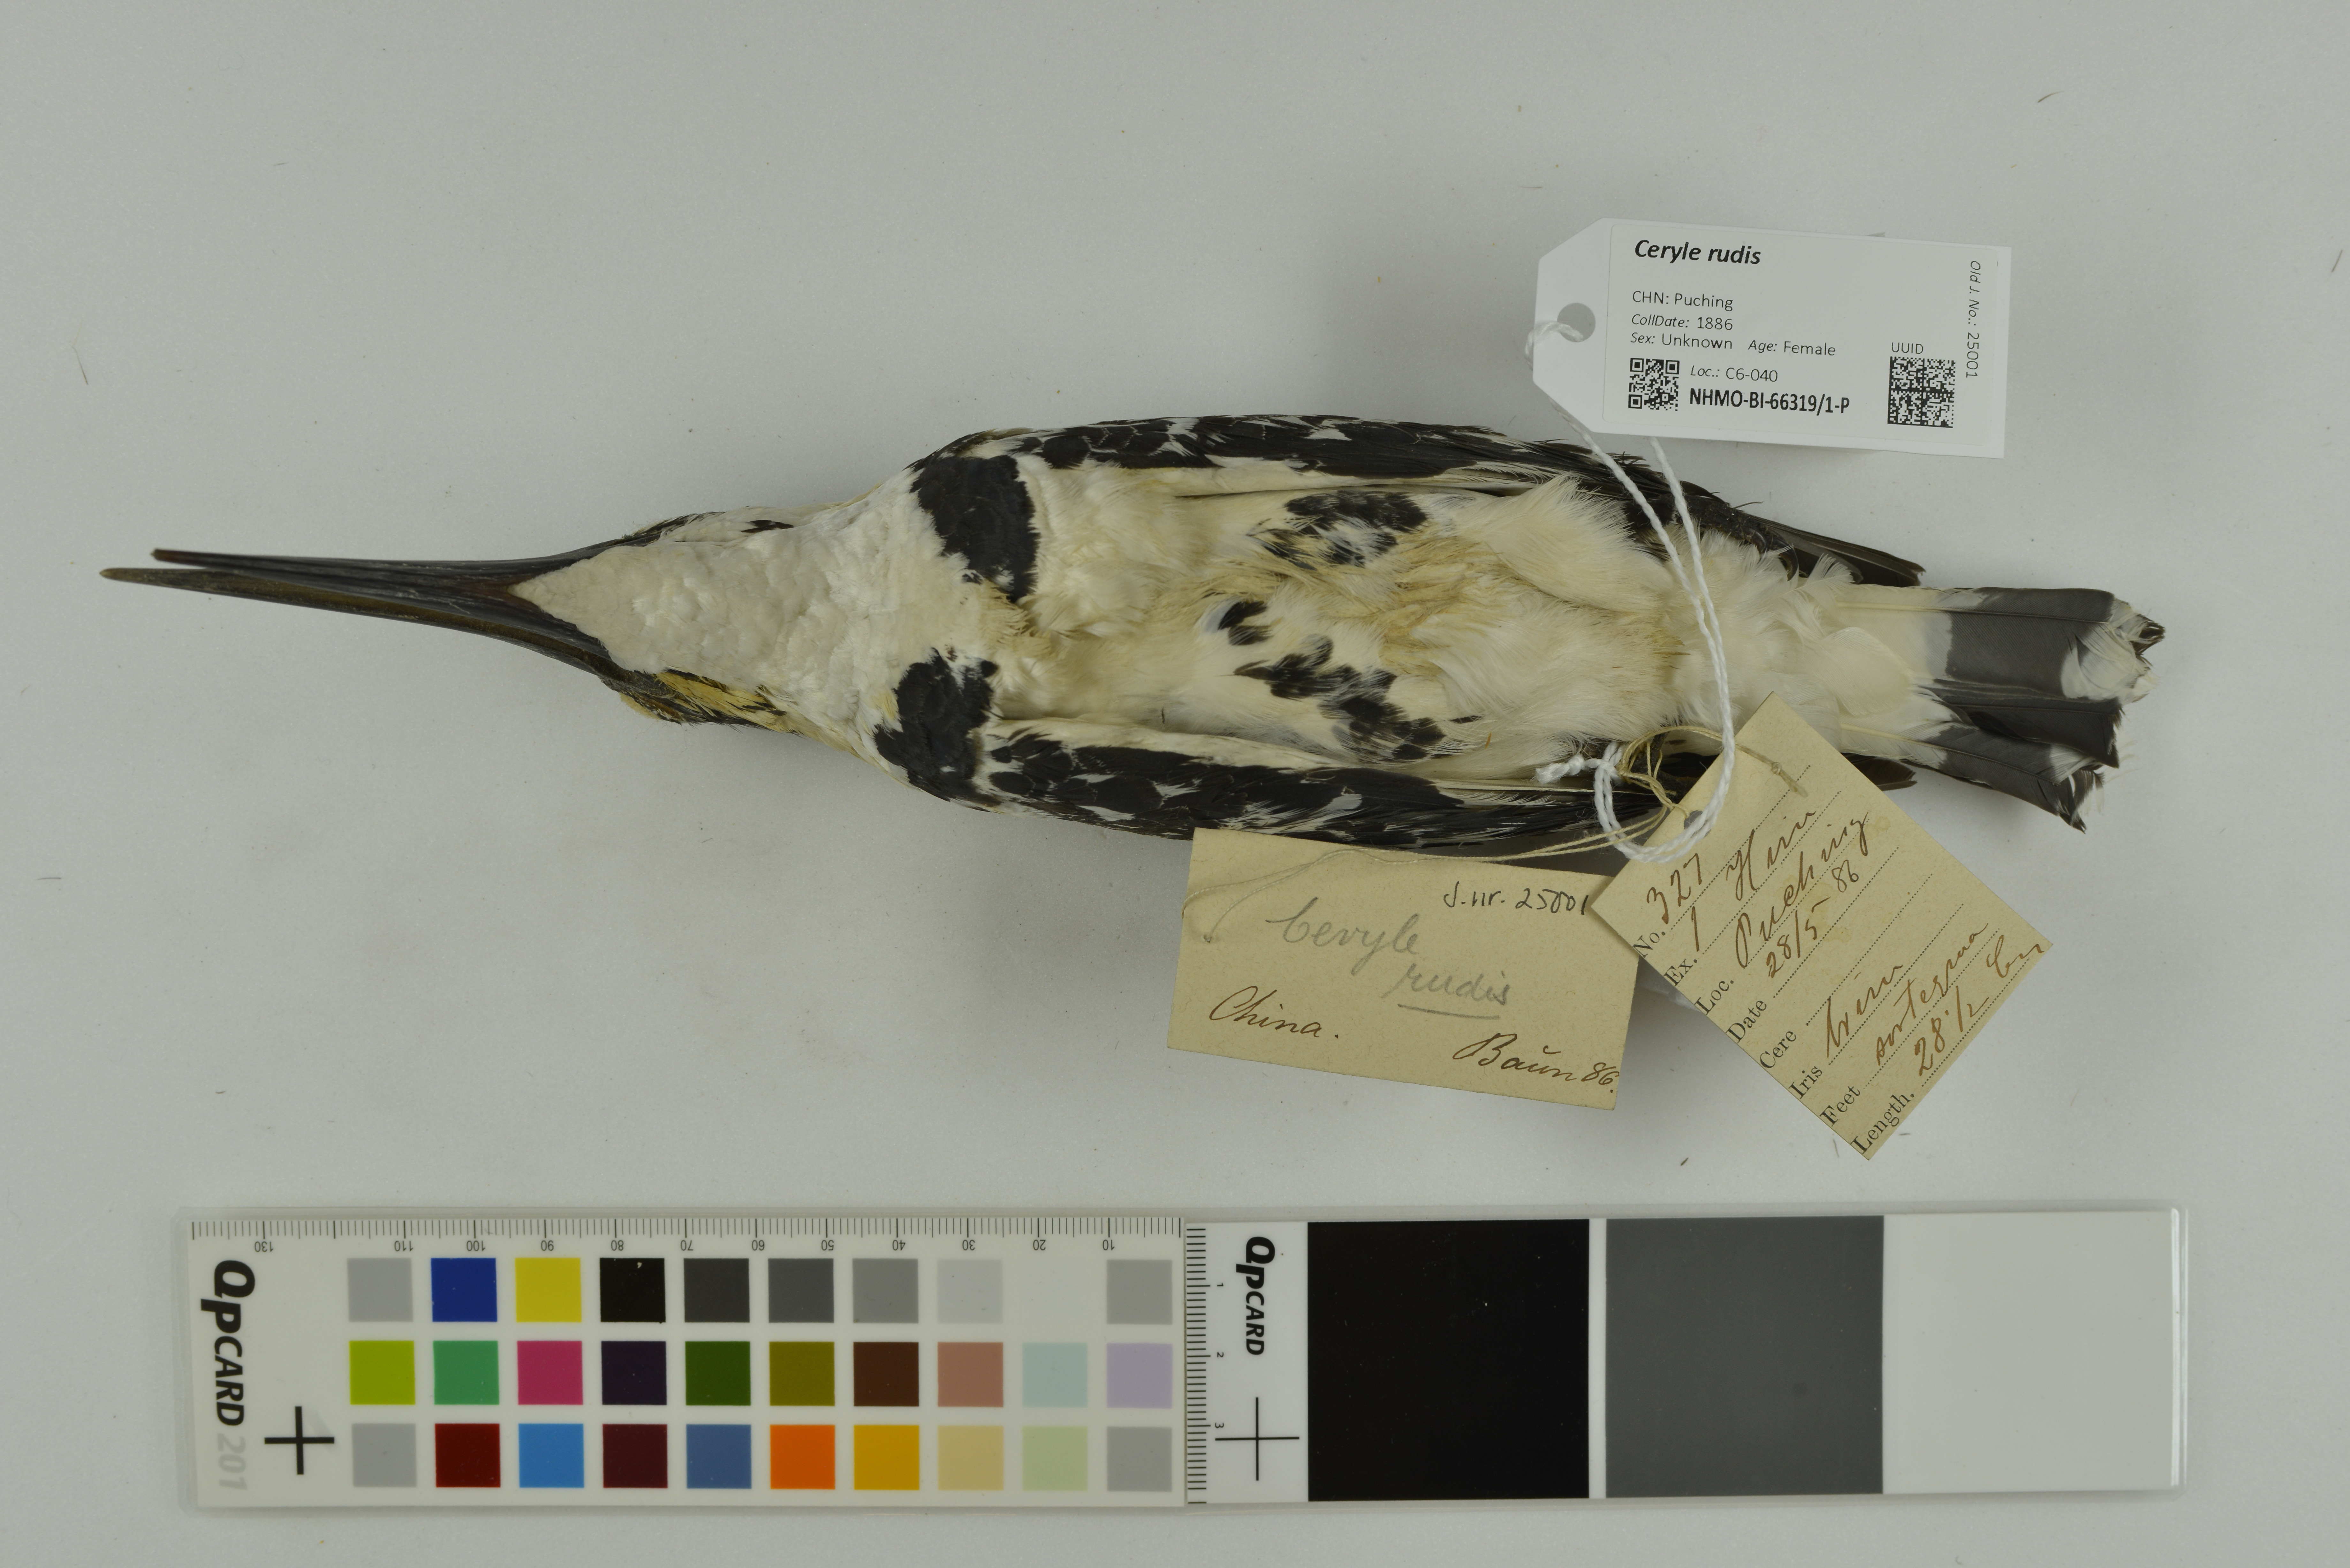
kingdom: Animalia
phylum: Chordata
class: Aves
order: Coraciiformes
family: Alcedinidae
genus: Ceryle
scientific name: Ceryle rudis
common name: Pied kingfisher
